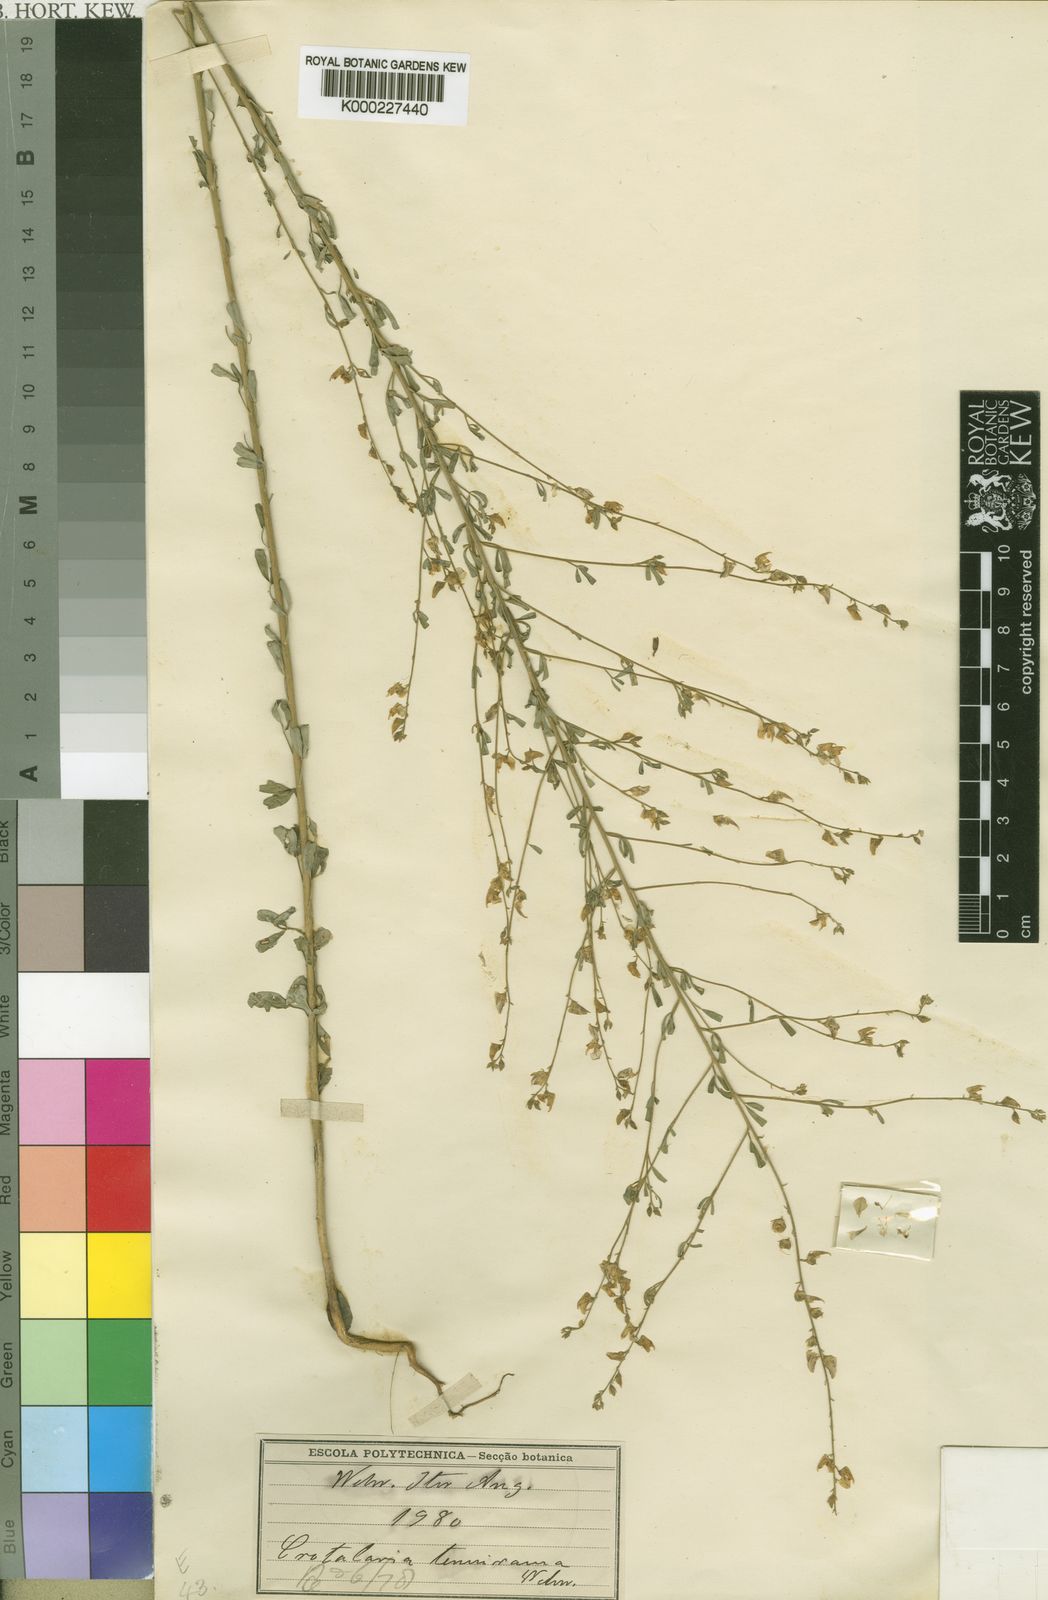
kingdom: Plantae
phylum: Tracheophyta
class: Magnoliopsida
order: Fabales
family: Fabaceae
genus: Crotalaria
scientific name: Crotalaria tenuirama
